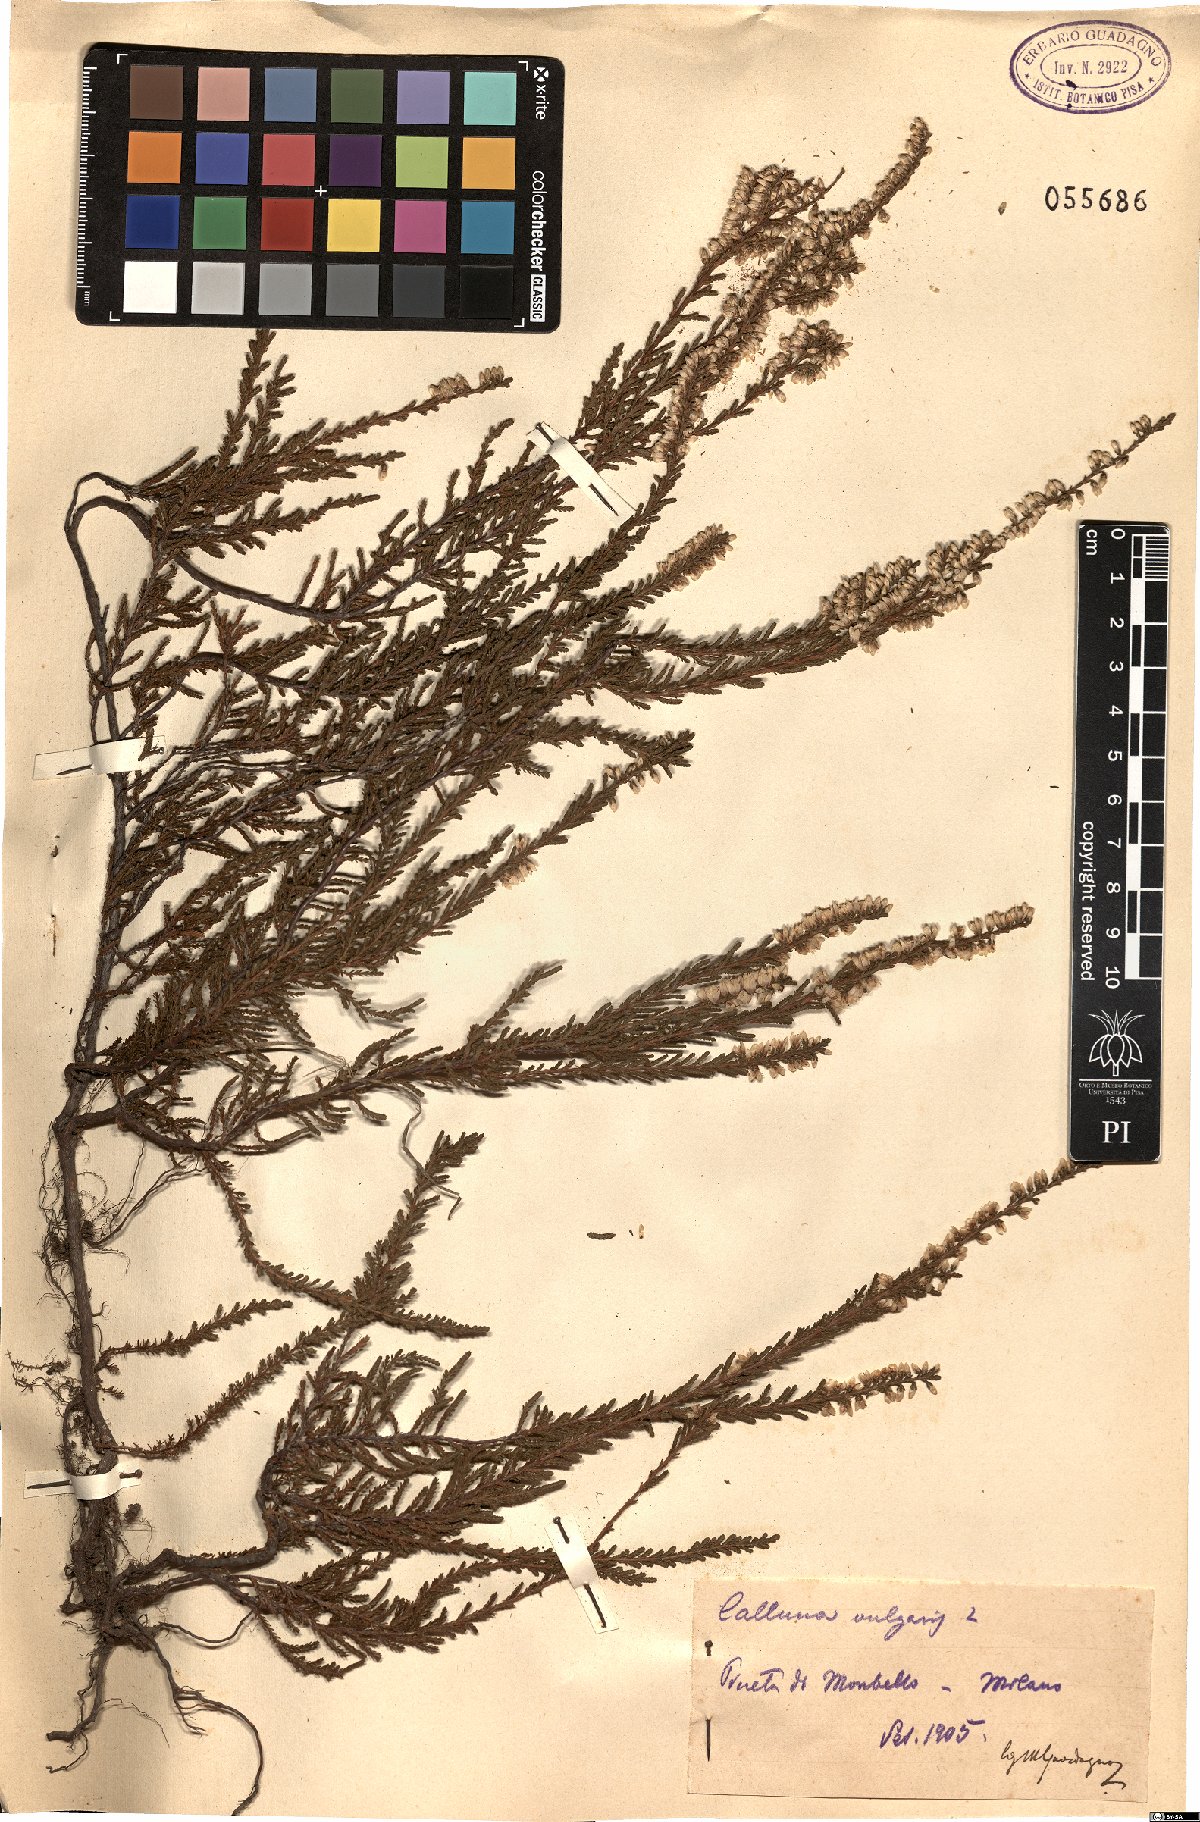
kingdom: Plantae
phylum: Tracheophyta
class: Magnoliopsida
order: Ericales
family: Ericaceae
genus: Calluna
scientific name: Calluna vulgaris
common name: Heather
